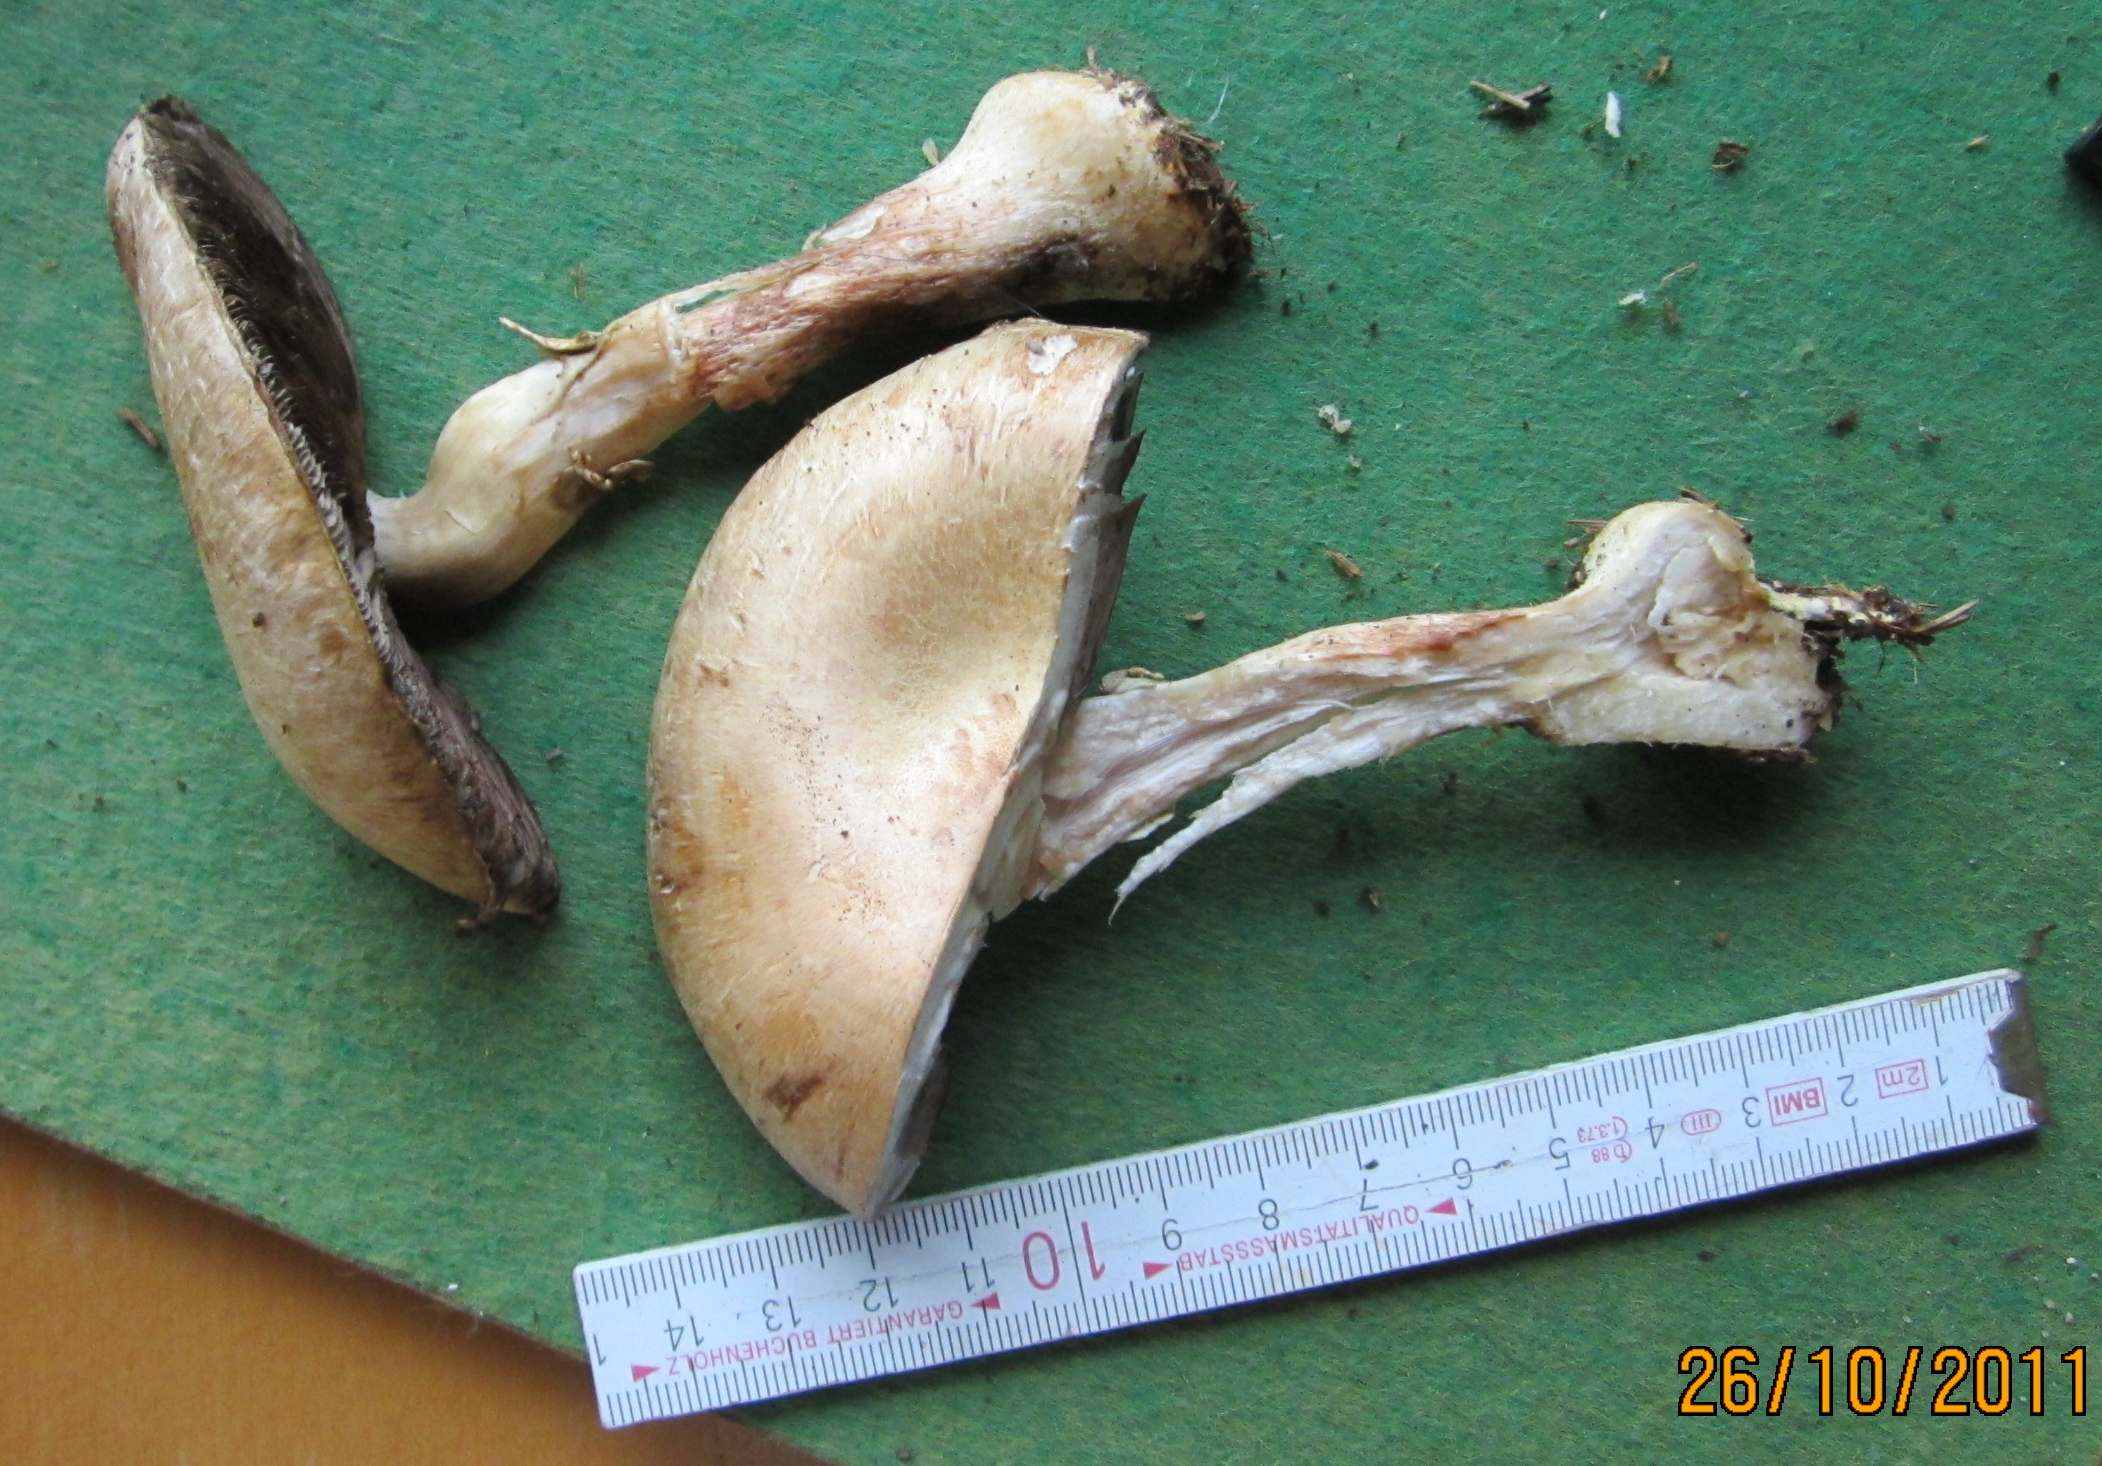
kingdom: Fungi
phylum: Basidiomycota
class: Agaricomycetes
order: Agaricales
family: Agaricaceae
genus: Agaricus
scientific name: Agaricus sylvicola
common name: skiveknoldet champignon
